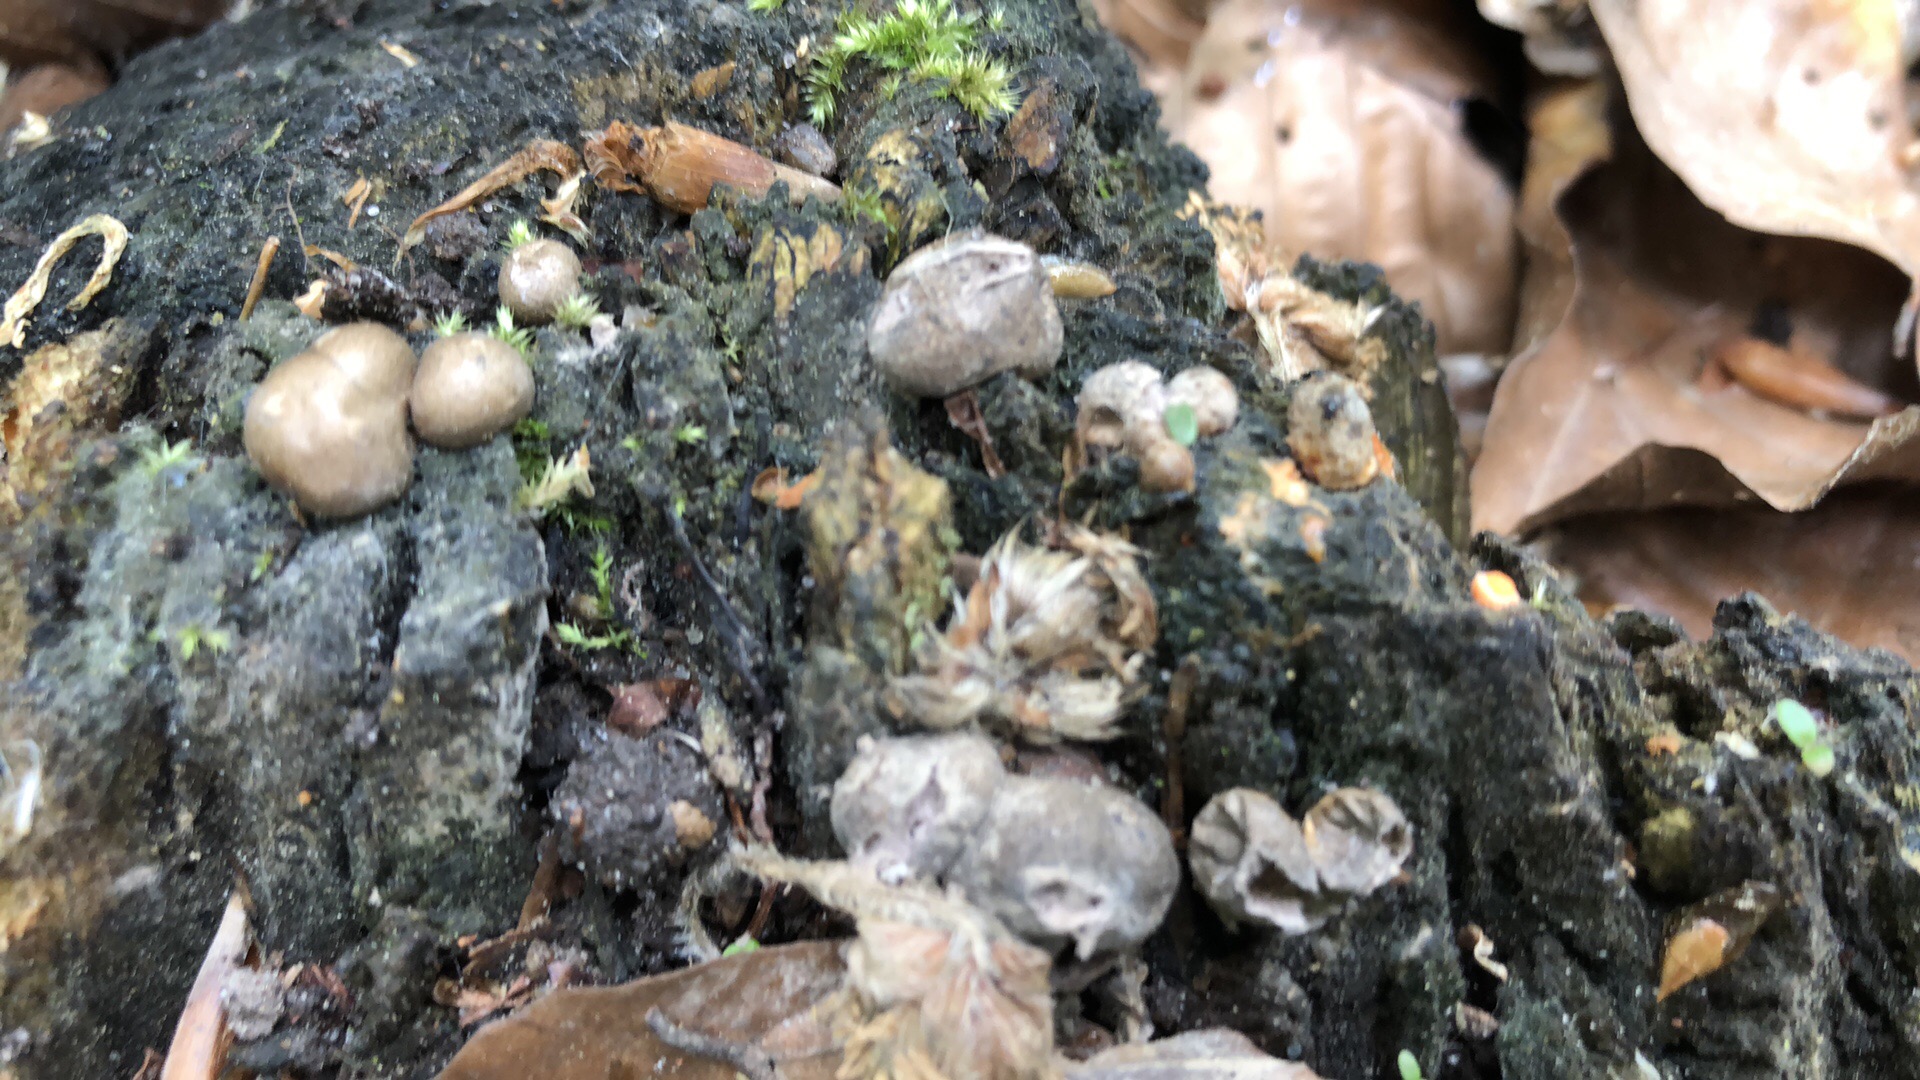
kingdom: Protozoa
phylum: Mycetozoa
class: Myxomycetes
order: Cribrariales
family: Tubiferaceae
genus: Lycogala
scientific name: Lycogala epidendrum
